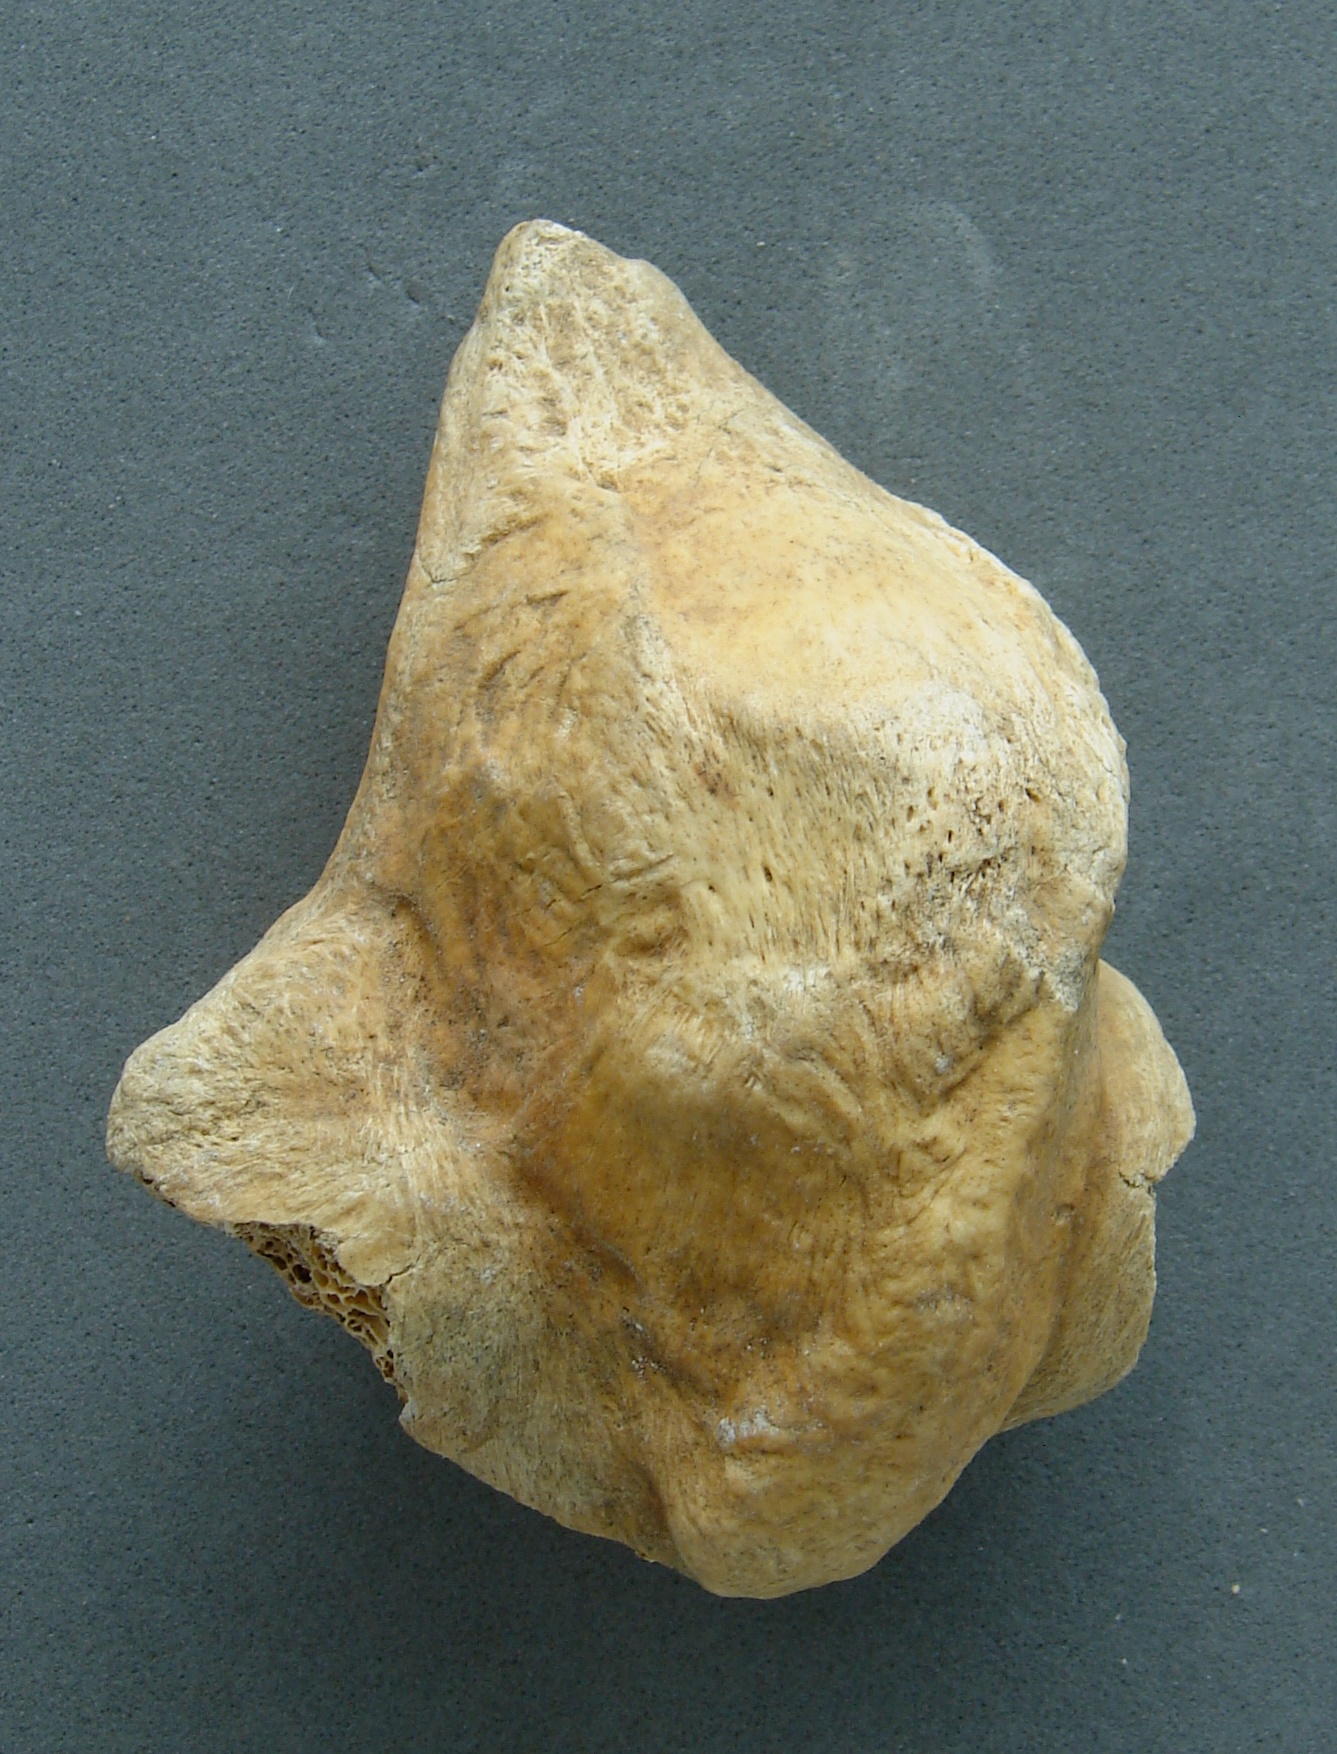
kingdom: Animalia
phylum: Chordata
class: Mammalia
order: Artiodactyla
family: Cervidae
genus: Cervus
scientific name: Cervus elaphus
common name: Red deer
